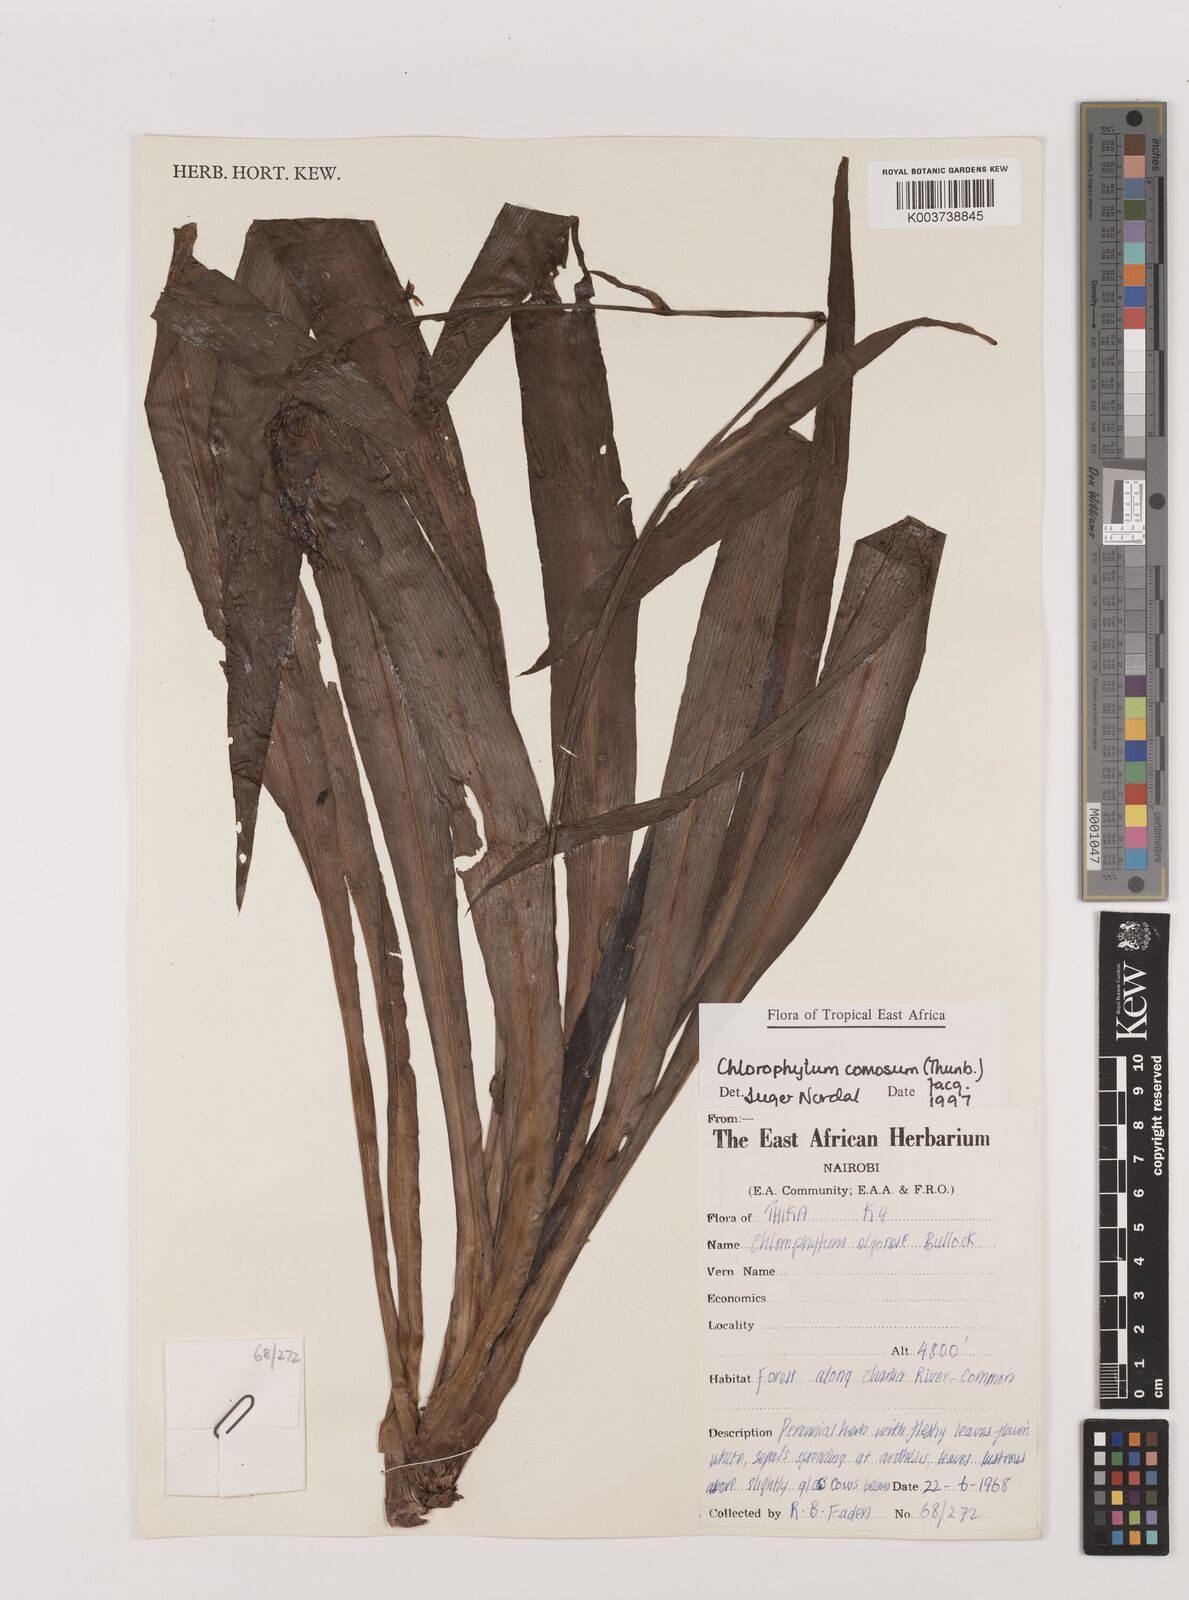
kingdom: Plantae
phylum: Tracheophyta
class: Liliopsida
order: Asparagales
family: Asparagaceae
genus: Chlorophytum
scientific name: Chlorophytum comosum
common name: Spider plant
